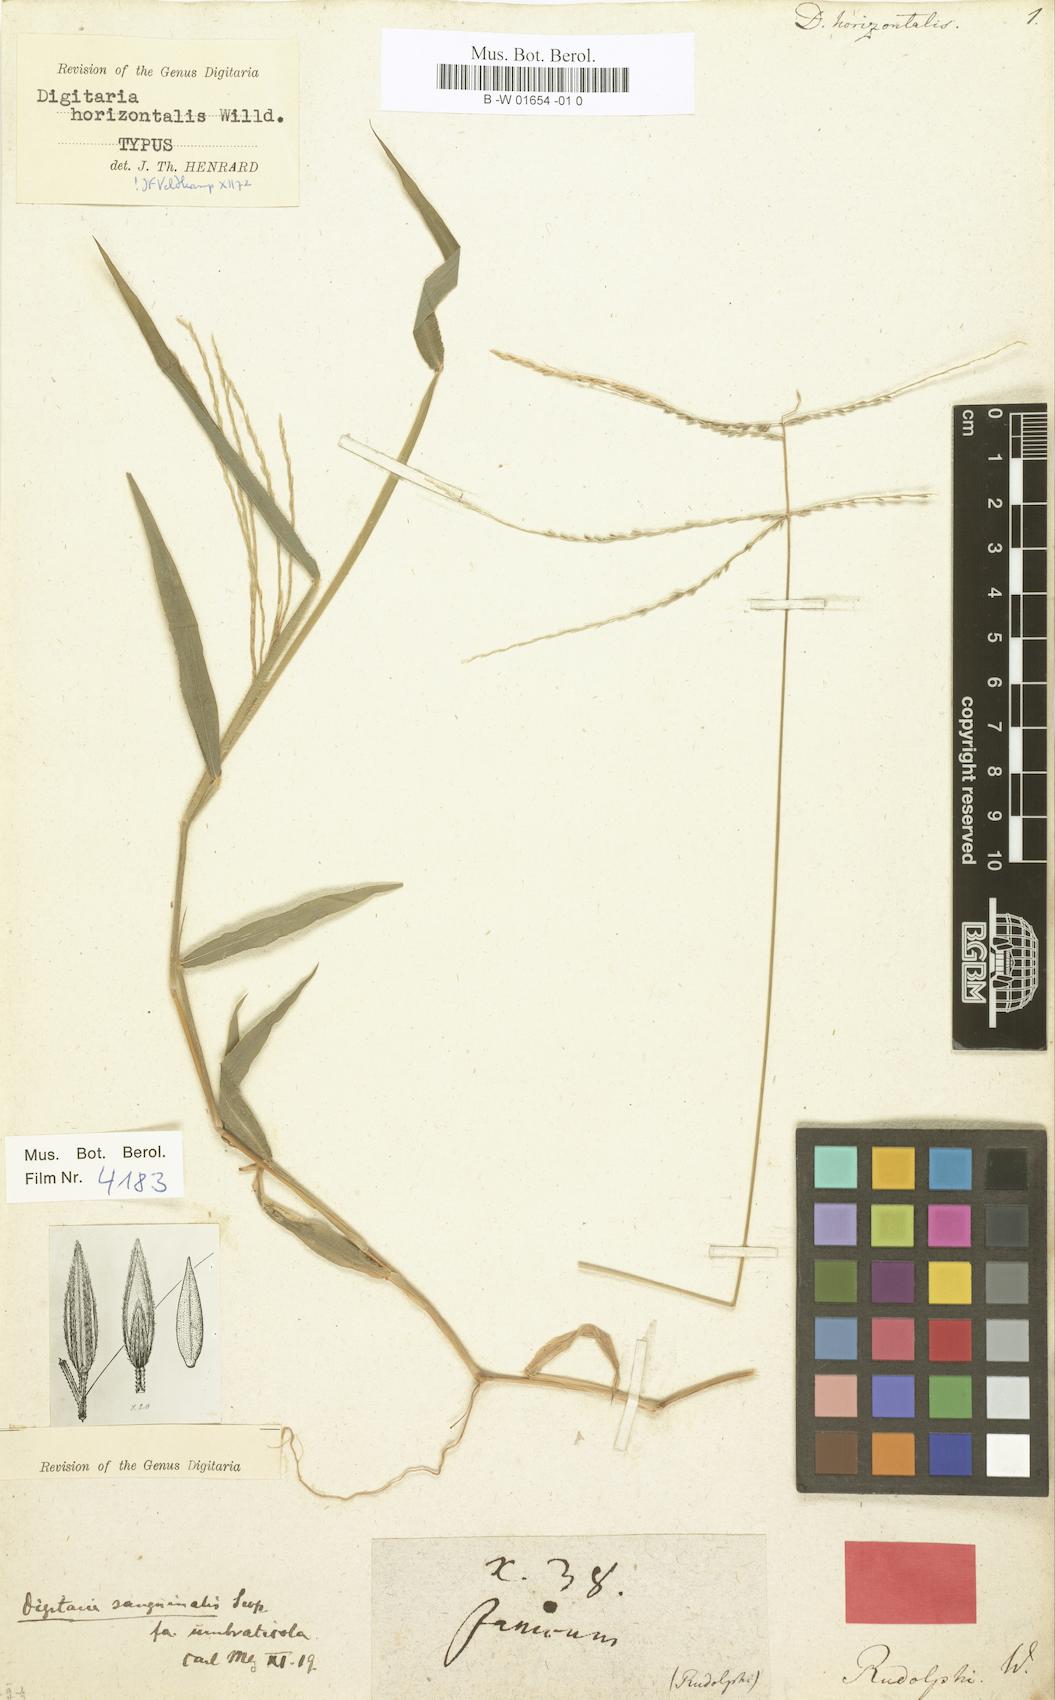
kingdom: Plantae
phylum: Tracheophyta
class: Liliopsida
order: Poales
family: Poaceae
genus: Digitaria
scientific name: Digitaria horizontalis
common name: Jamaican crabgrass
